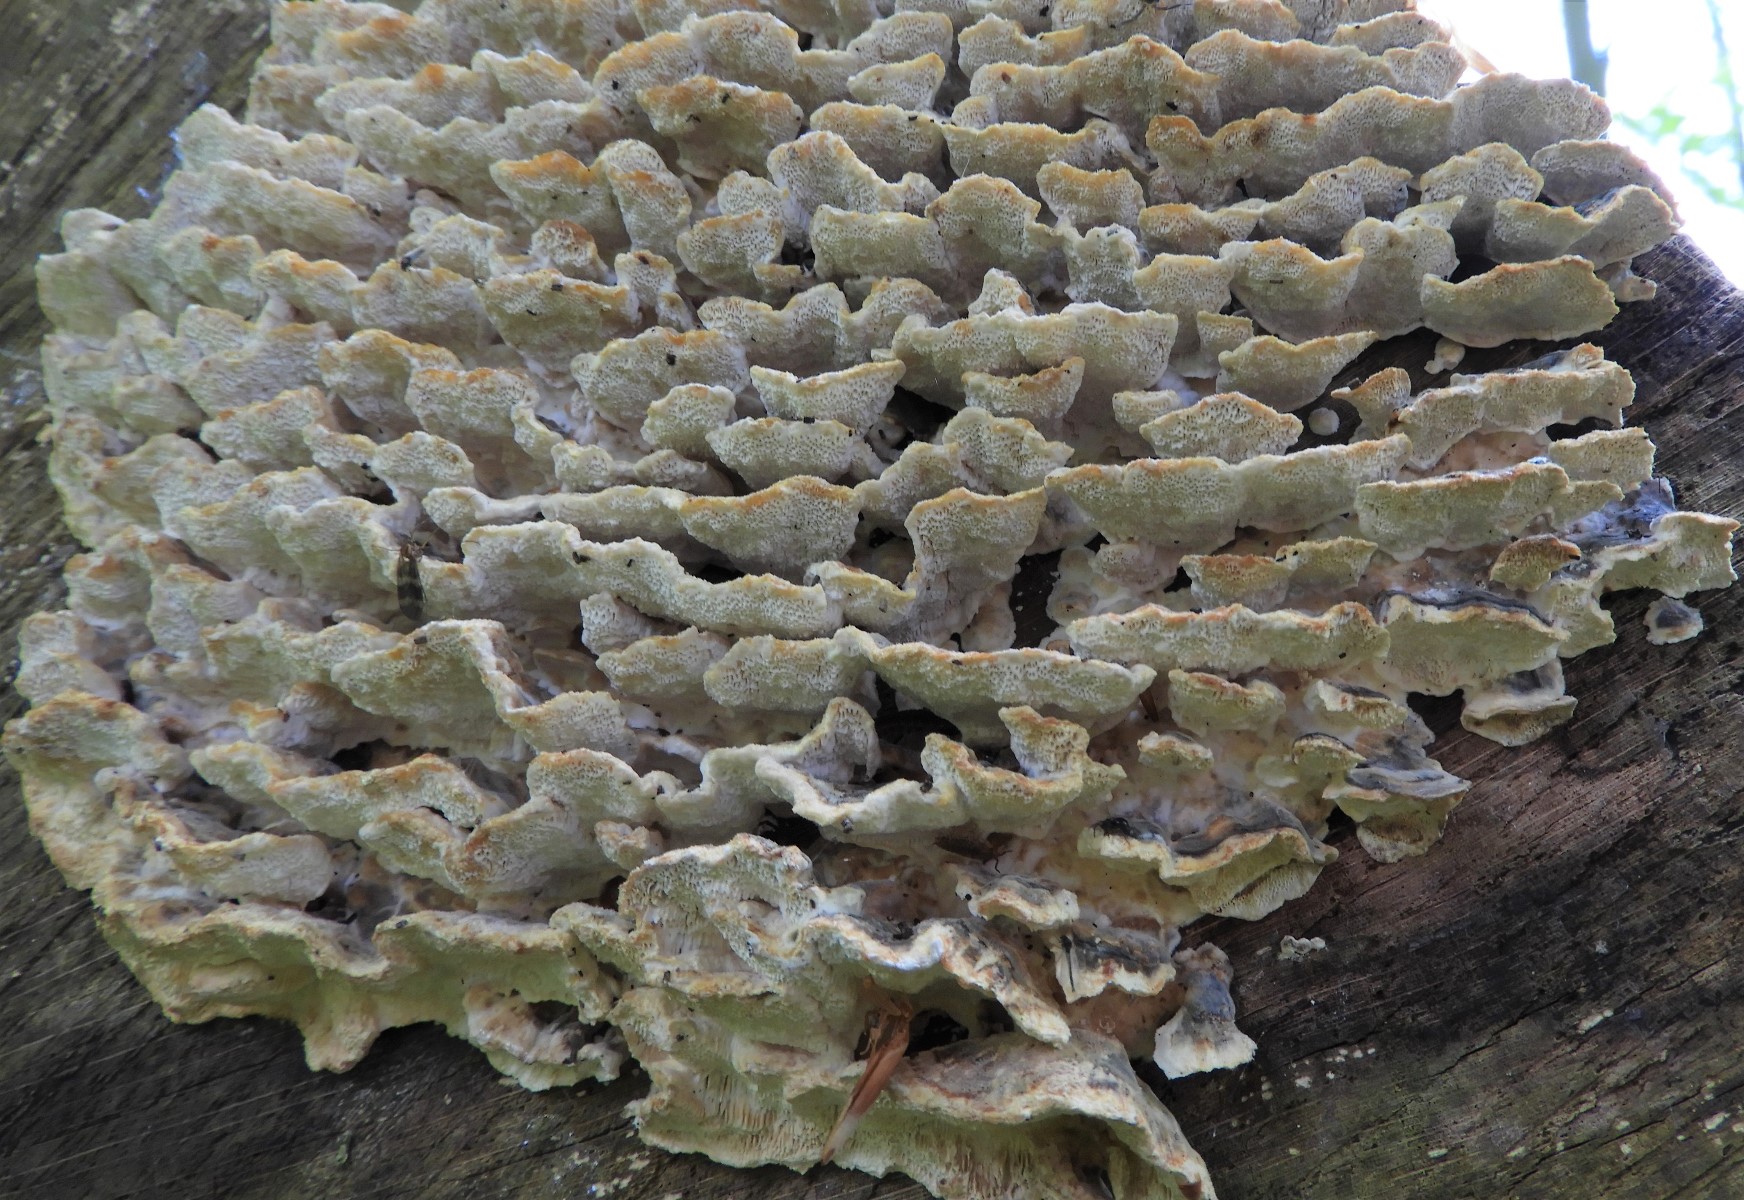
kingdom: Fungi
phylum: Basidiomycota
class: Agaricomycetes
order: Polyporales
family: Polyporaceae
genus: Trametes
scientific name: Trametes versicolor
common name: broget læderporesvamp
